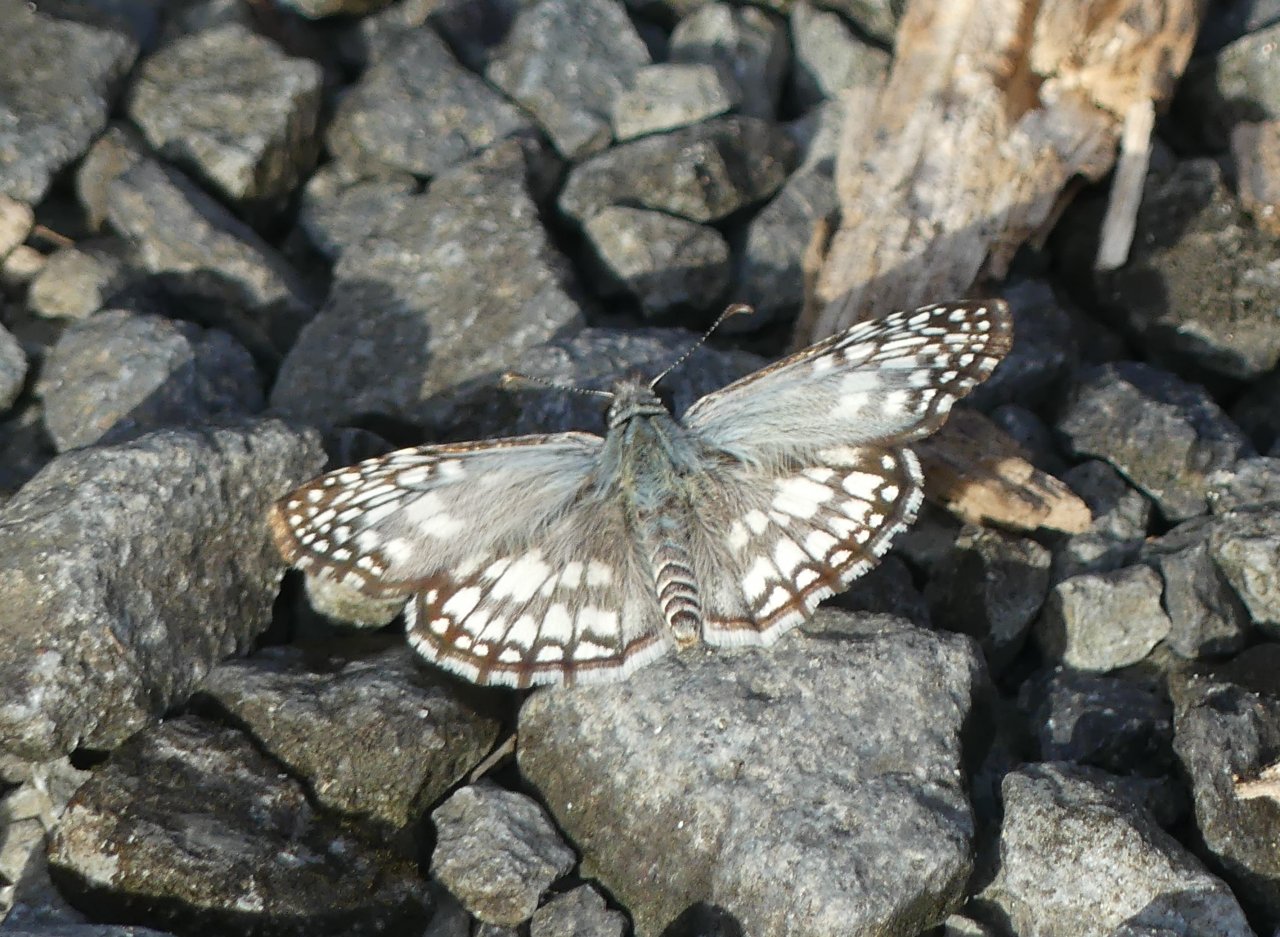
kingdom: Animalia
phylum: Arthropoda
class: Insecta
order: Lepidoptera
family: Hesperiidae
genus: Pyrgus
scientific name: Pyrgus oileus
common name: Tropical Checkered-Skipper
